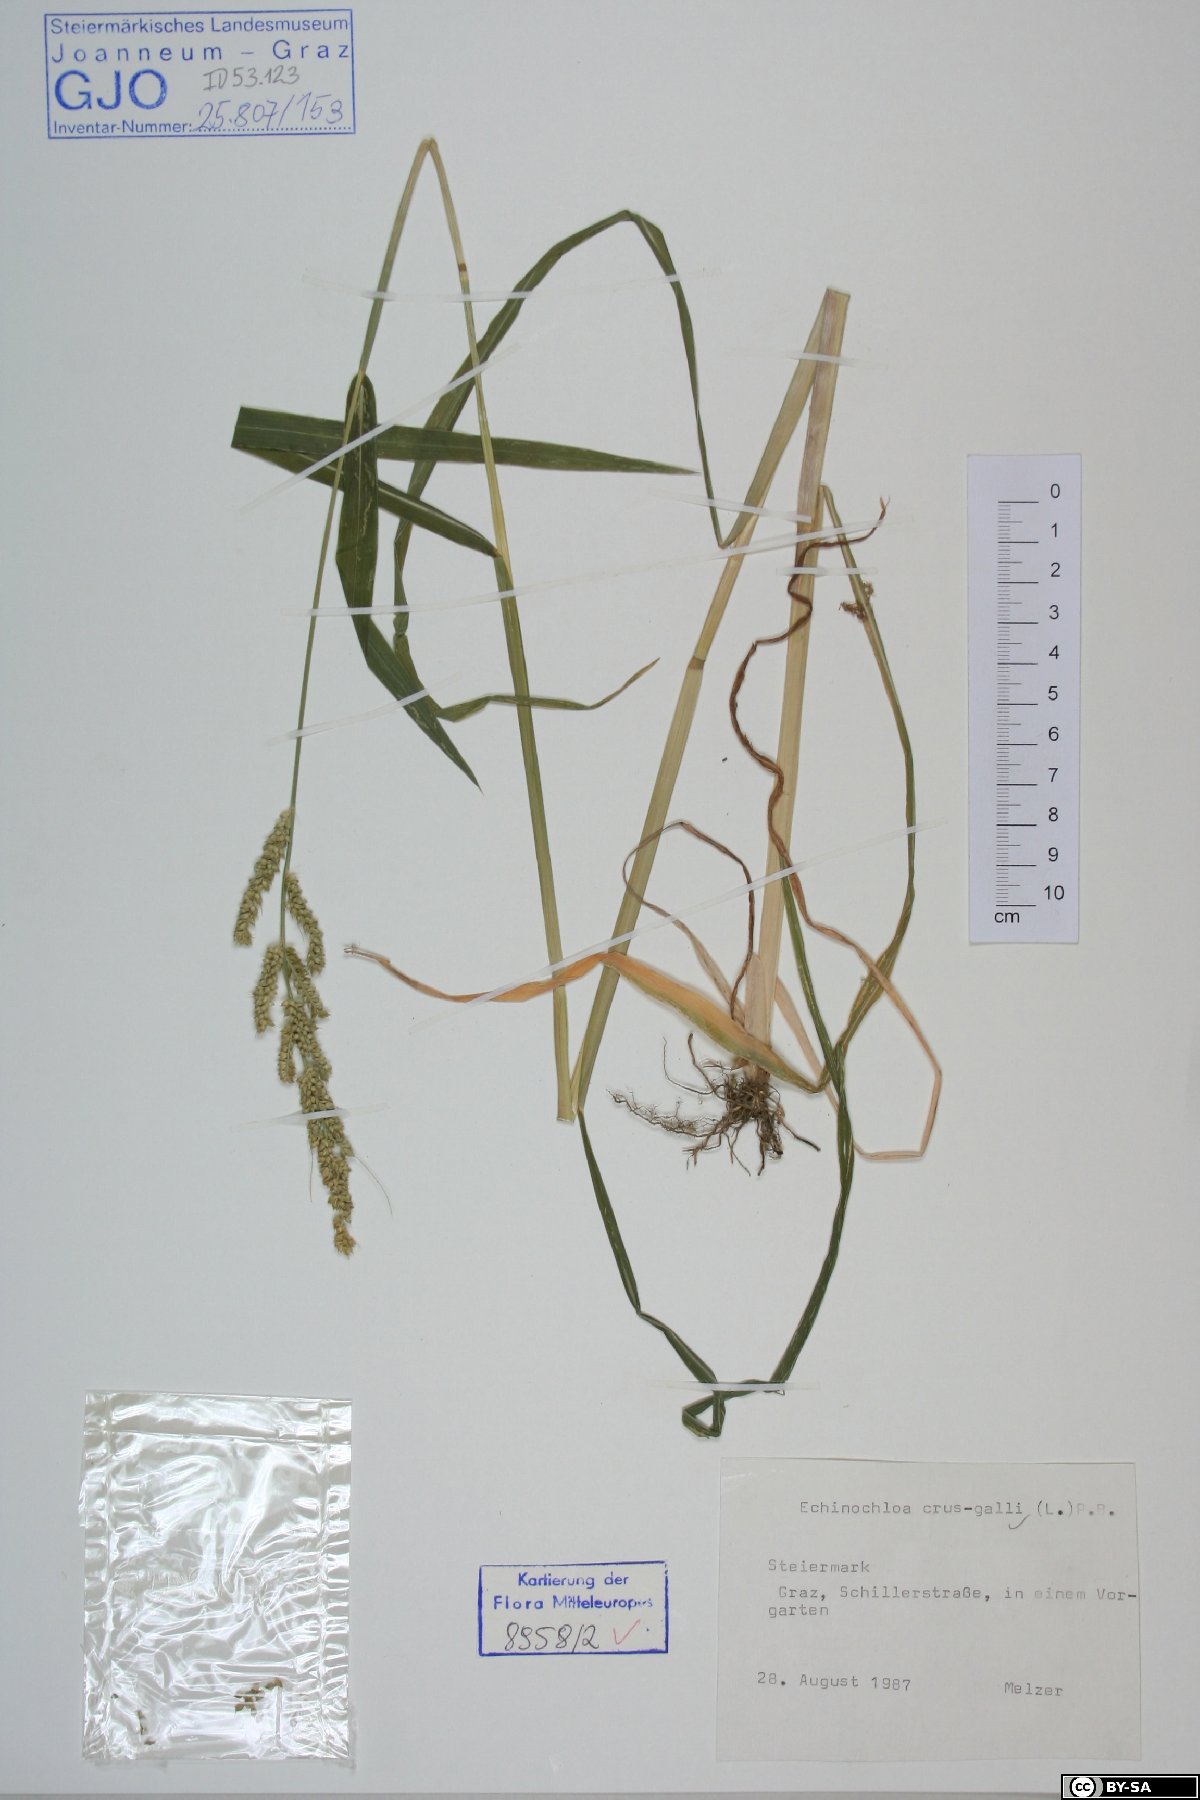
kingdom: Plantae
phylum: Tracheophyta
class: Liliopsida
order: Poales
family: Poaceae
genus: Echinochloa
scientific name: Echinochloa crus-galli
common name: Cockspur
